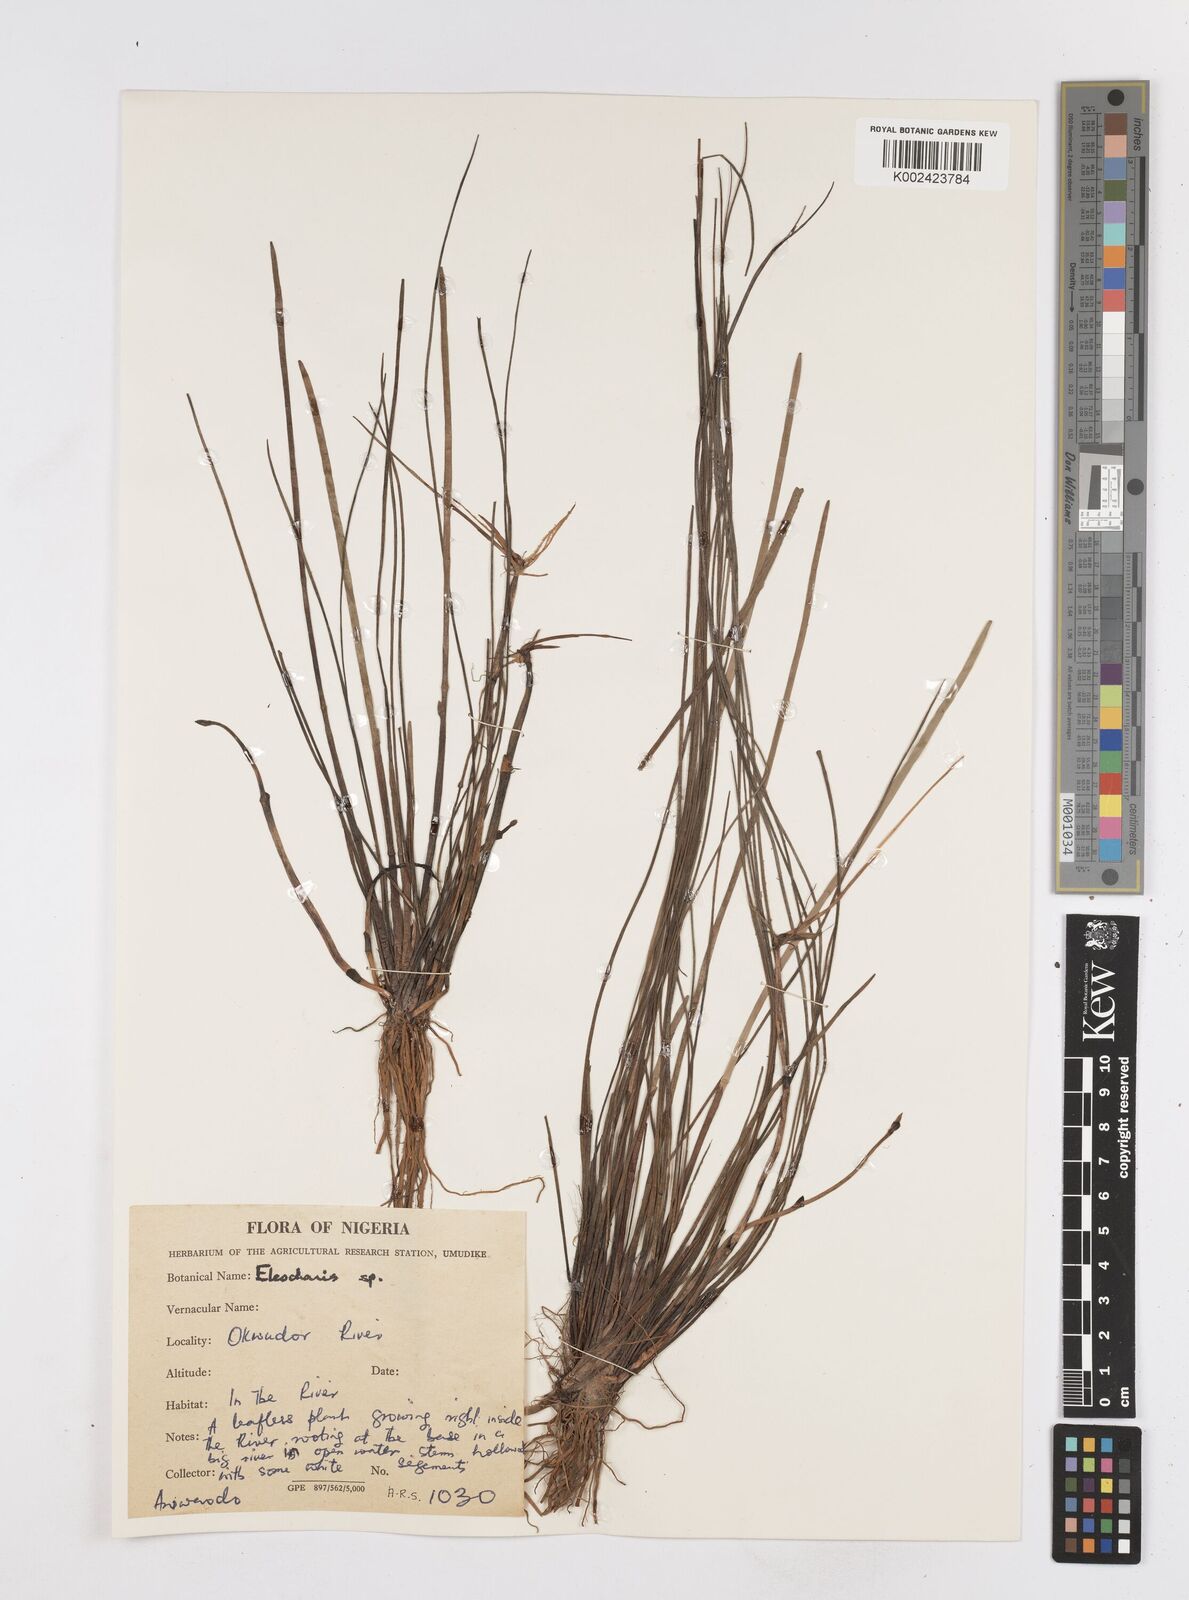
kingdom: Plantae
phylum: Tracheophyta
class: Liliopsida
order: Poales
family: Cyperaceae
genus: Eleocharis
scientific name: Eleocharis
